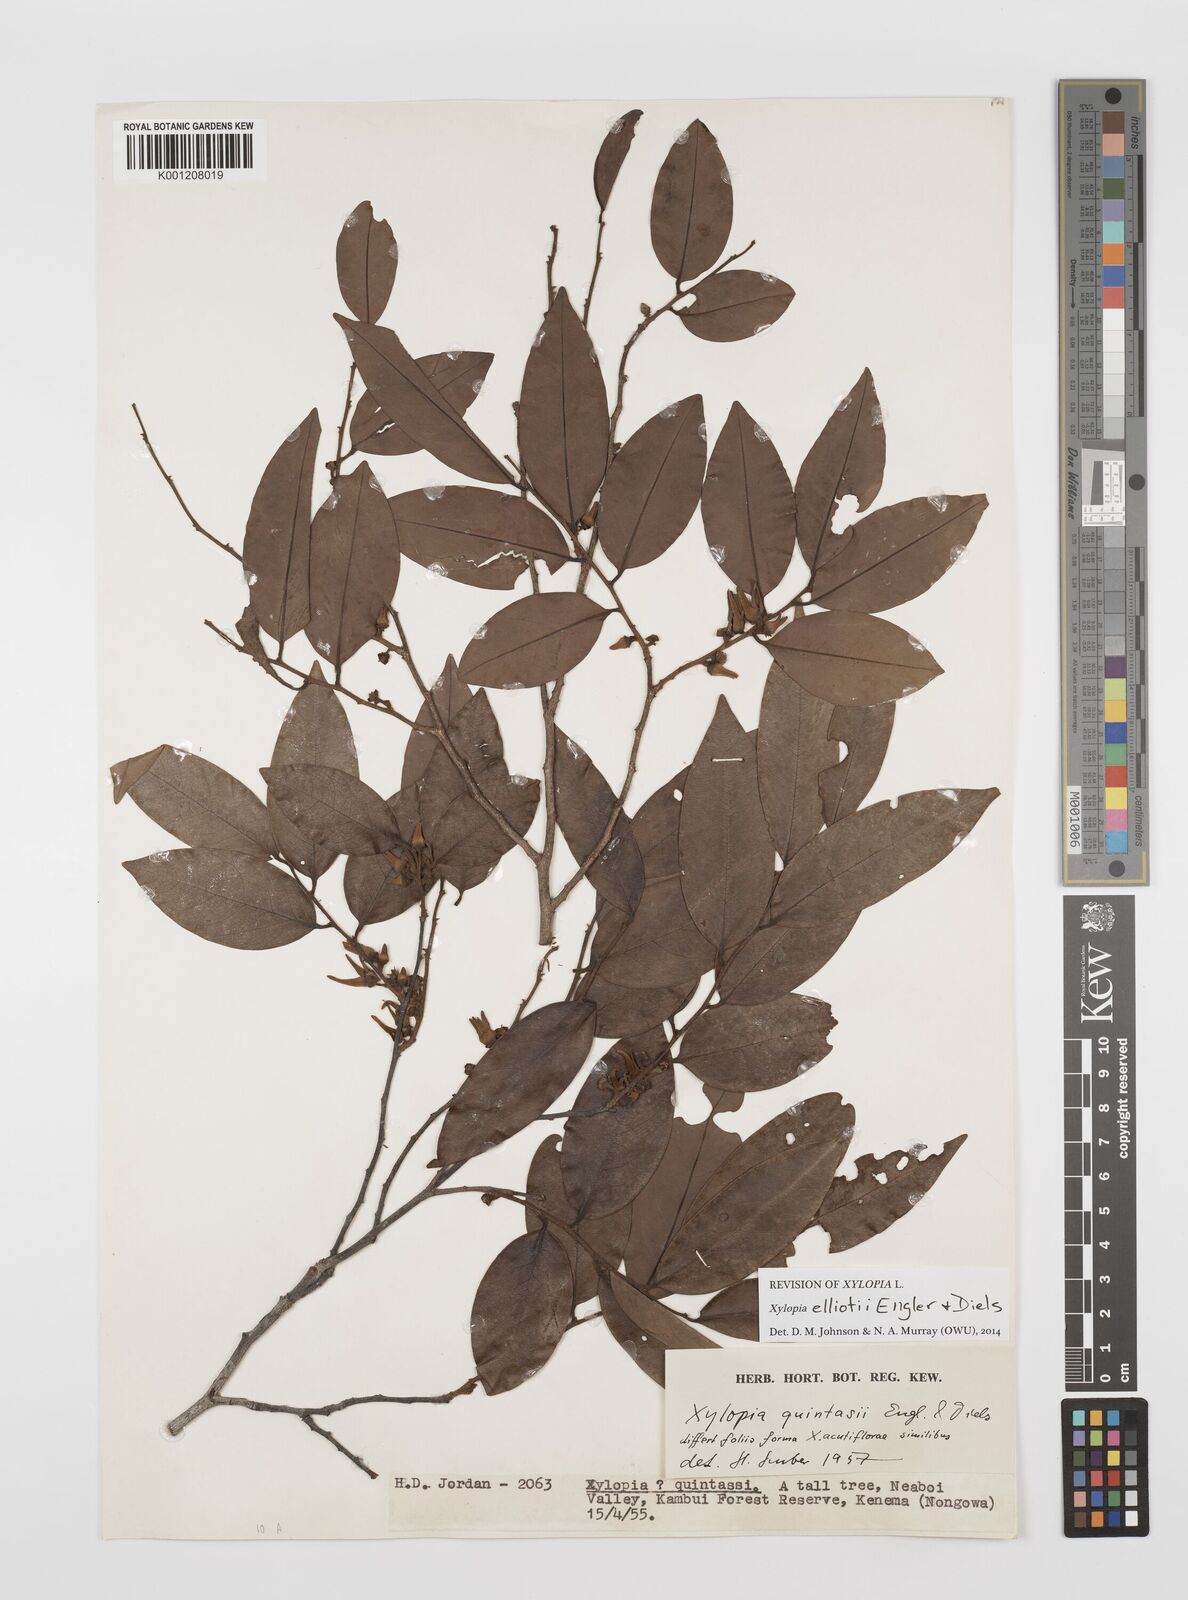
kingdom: Plantae
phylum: Tracheophyta
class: Magnoliopsida
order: Magnoliales
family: Annonaceae
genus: Xylopia
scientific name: Xylopia elliotii
